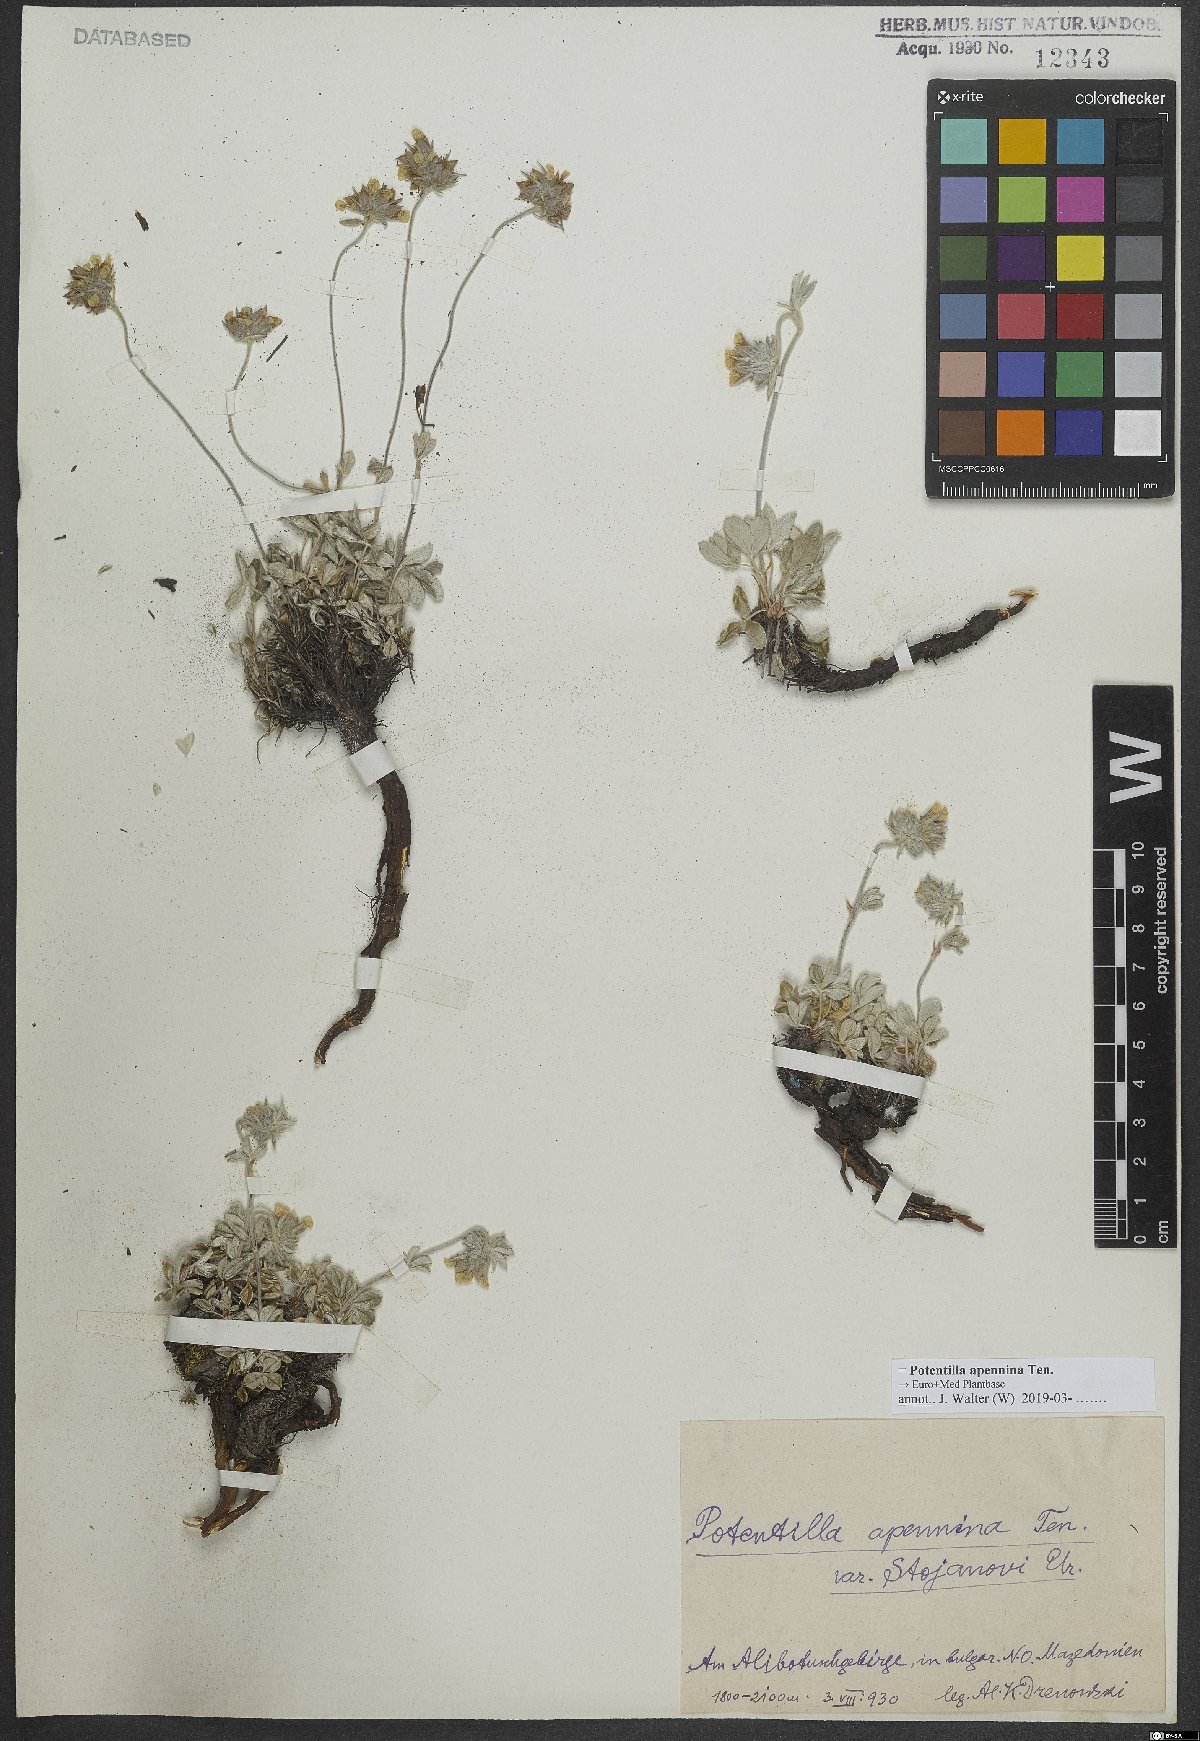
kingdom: Plantae
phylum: Tracheophyta
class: Magnoliopsida
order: Rosales
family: Rosaceae
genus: Potentilla
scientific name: Potentilla apennina
